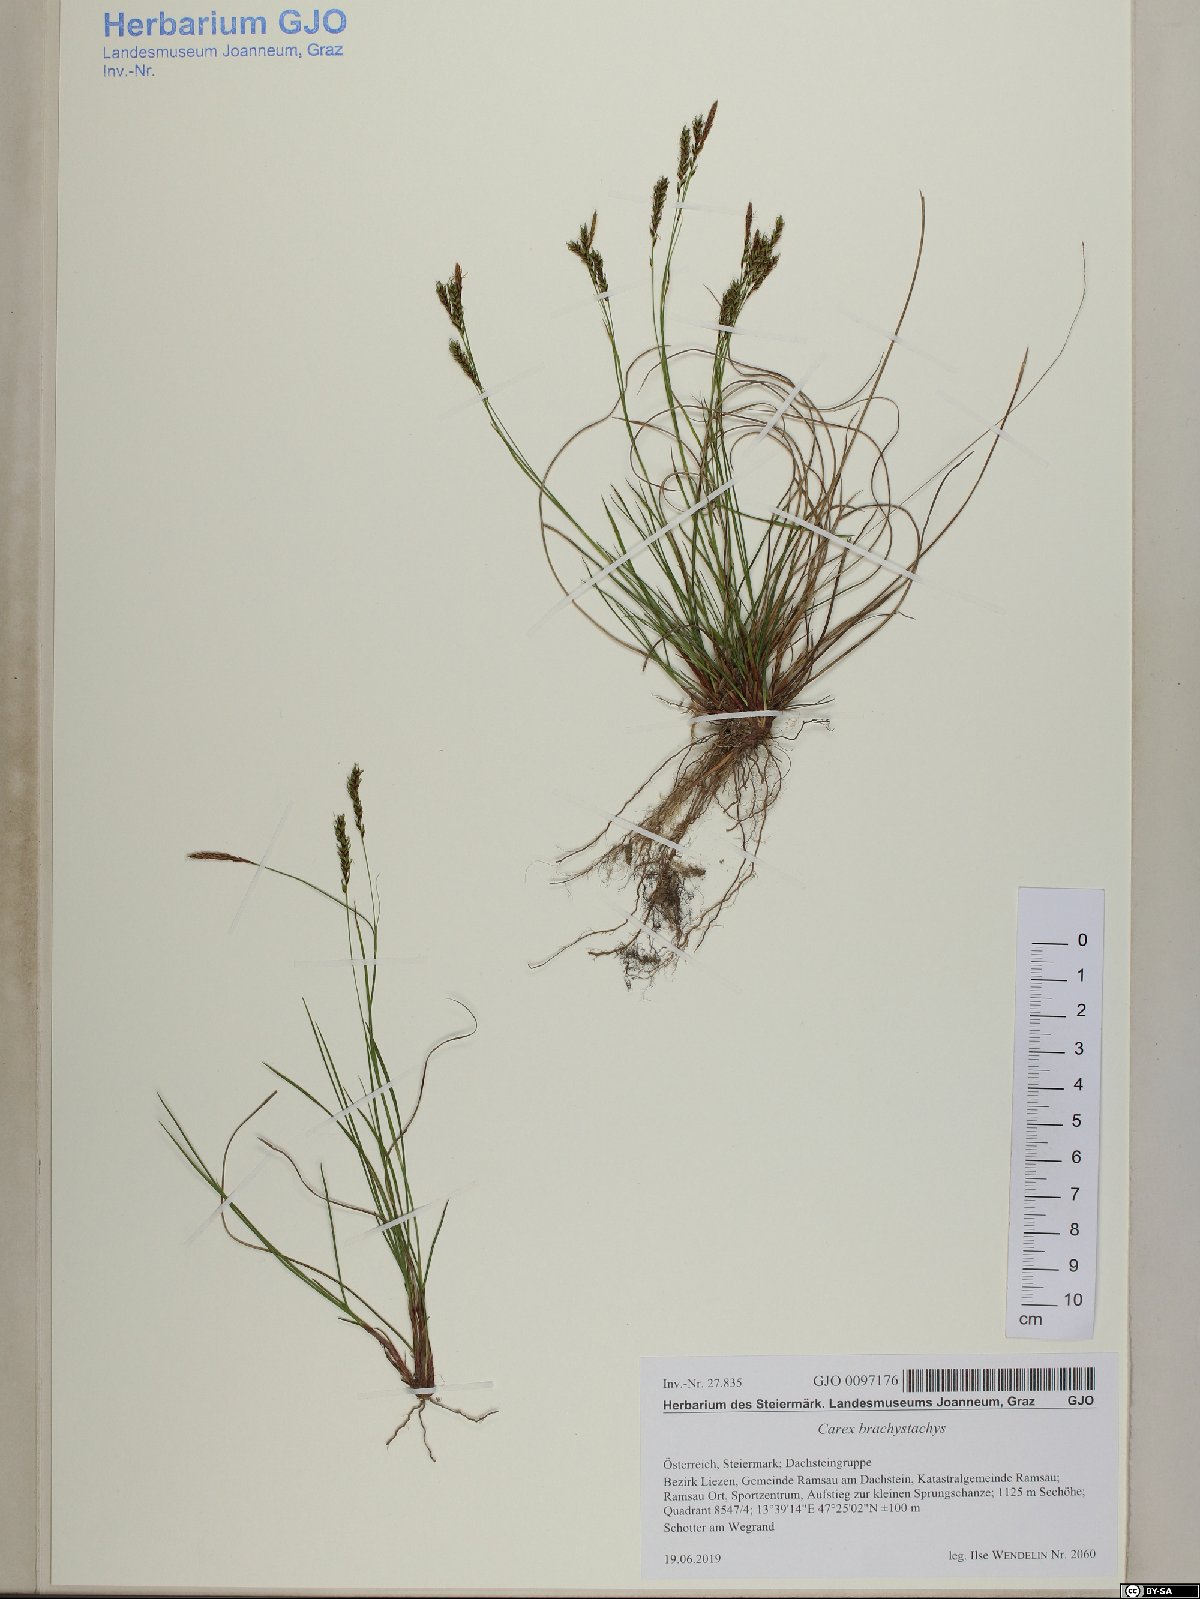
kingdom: Plantae
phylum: Tracheophyta
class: Liliopsida
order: Poales
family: Cyperaceae
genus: Carex
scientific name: Carex brachystachys
